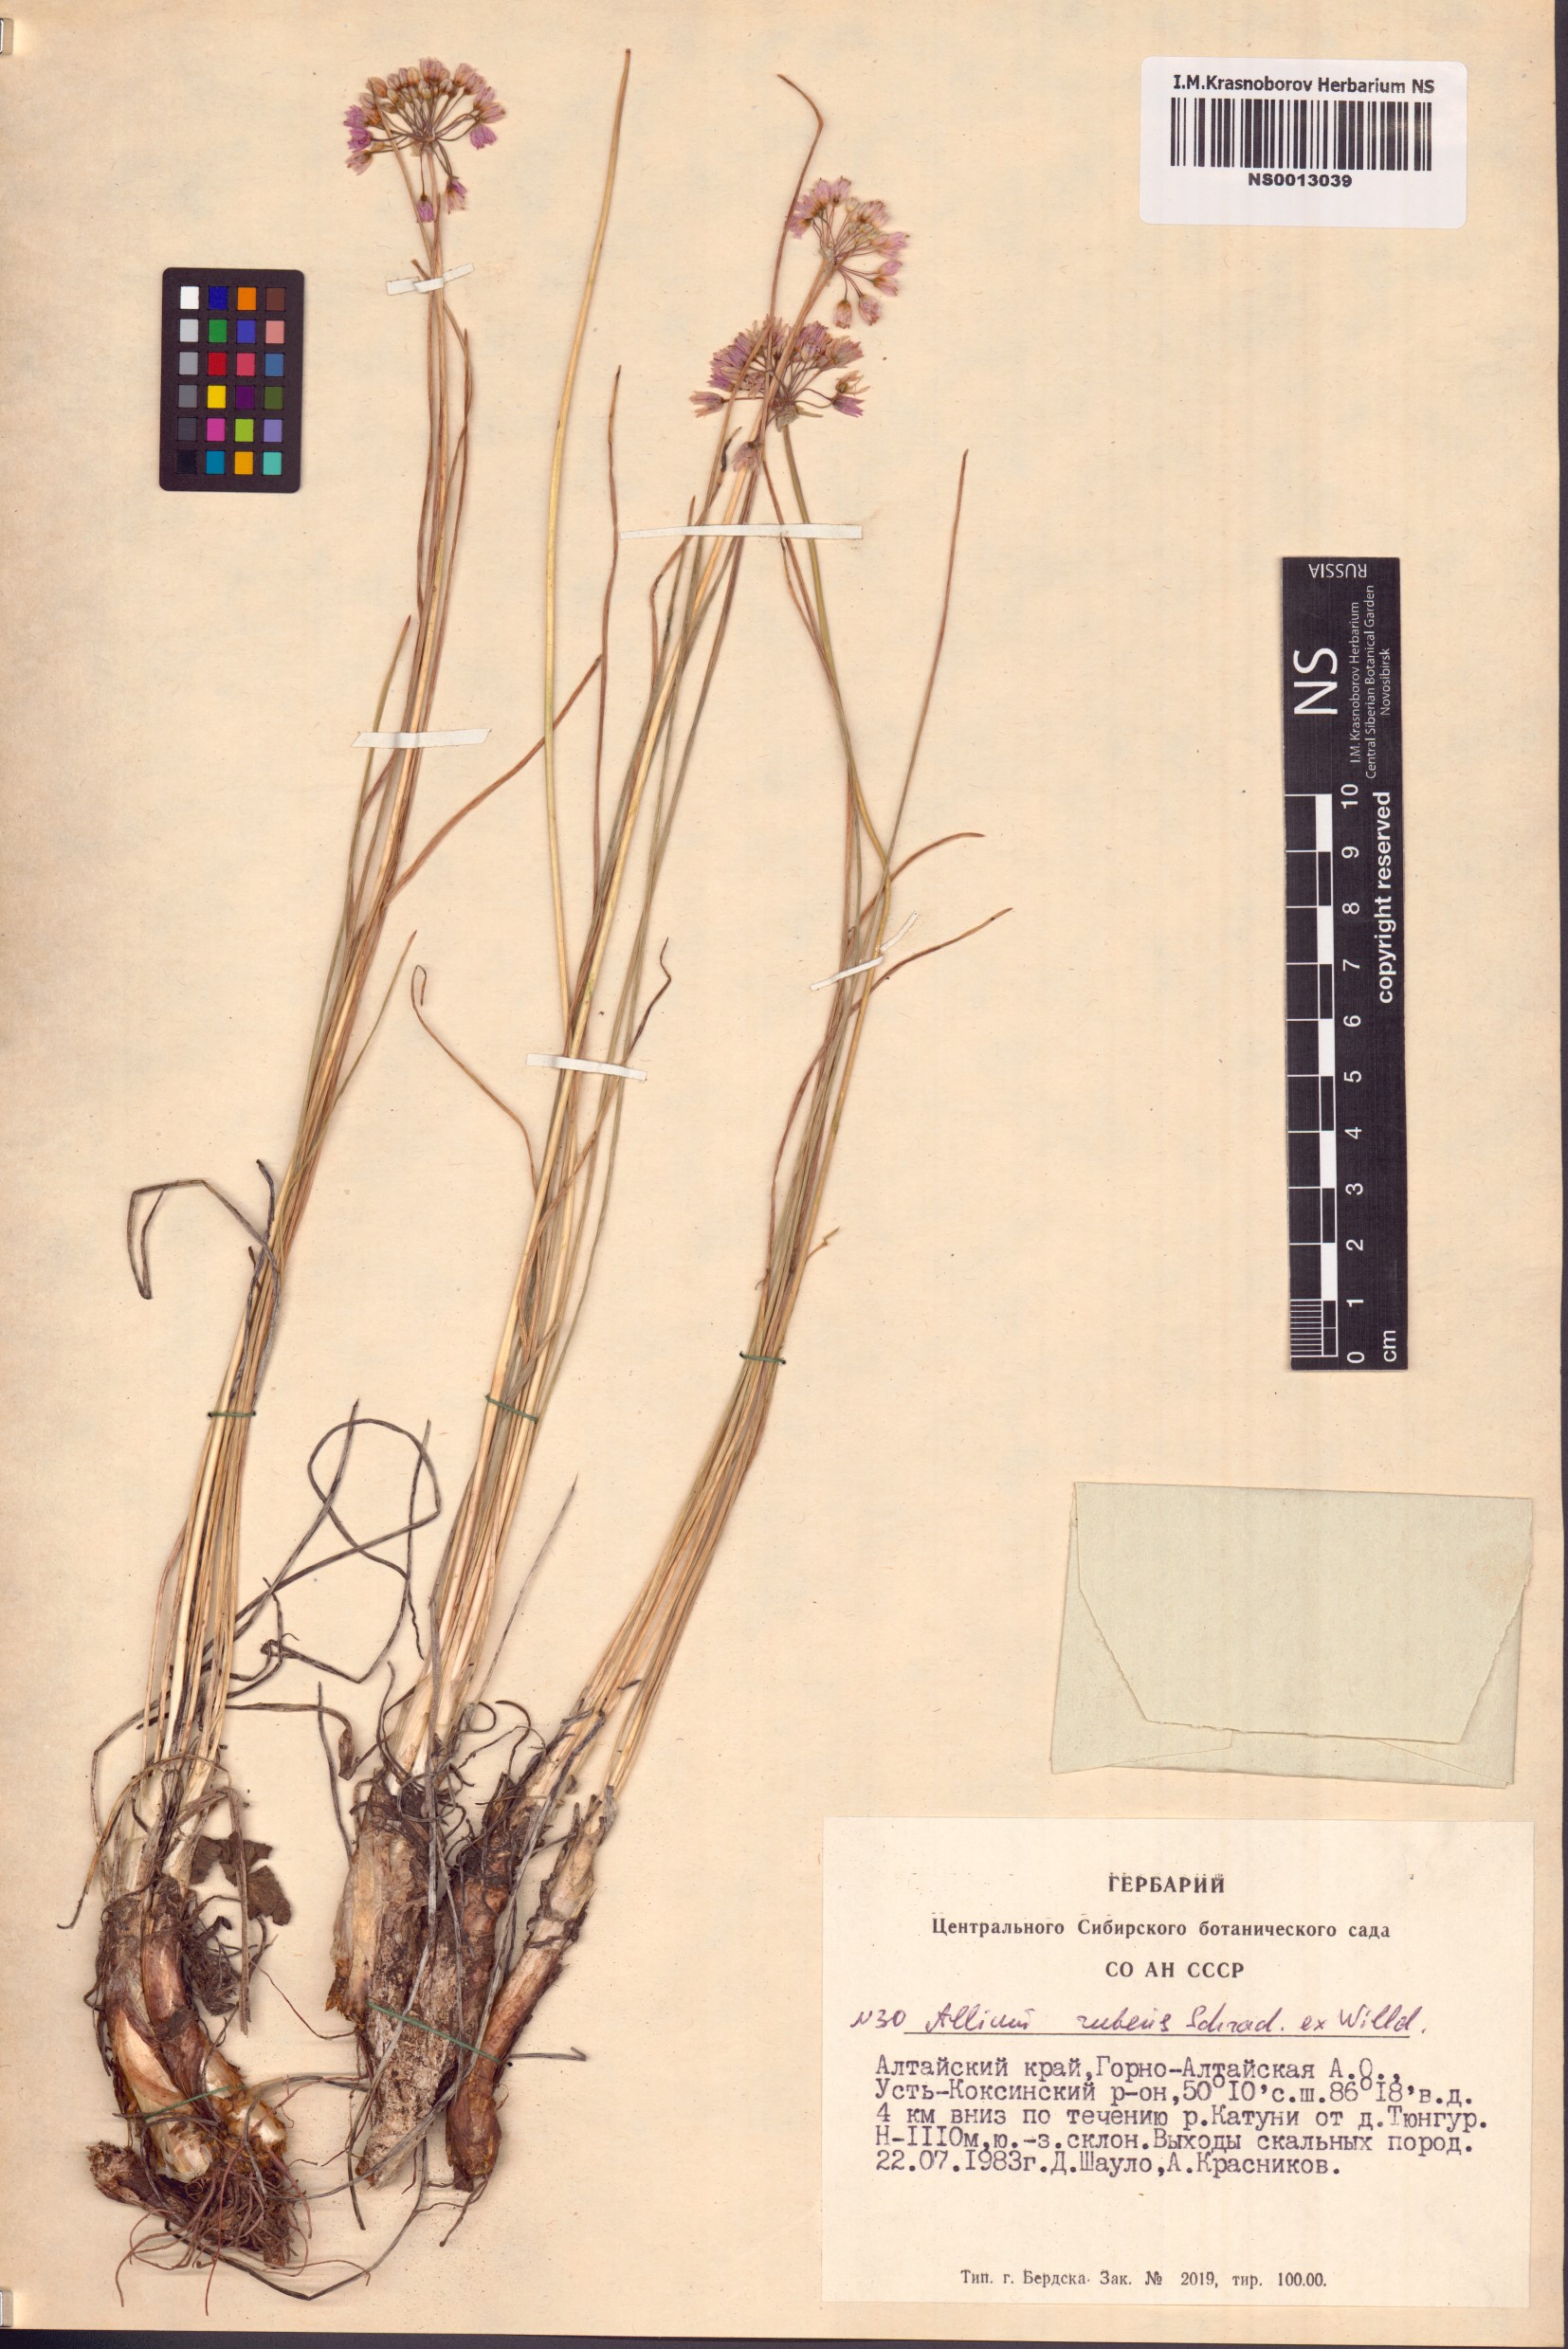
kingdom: Plantae
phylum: Tracheophyta
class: Liliopsida
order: Asparagales
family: Amaryllidaceae
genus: Allium
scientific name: Allium rubens
